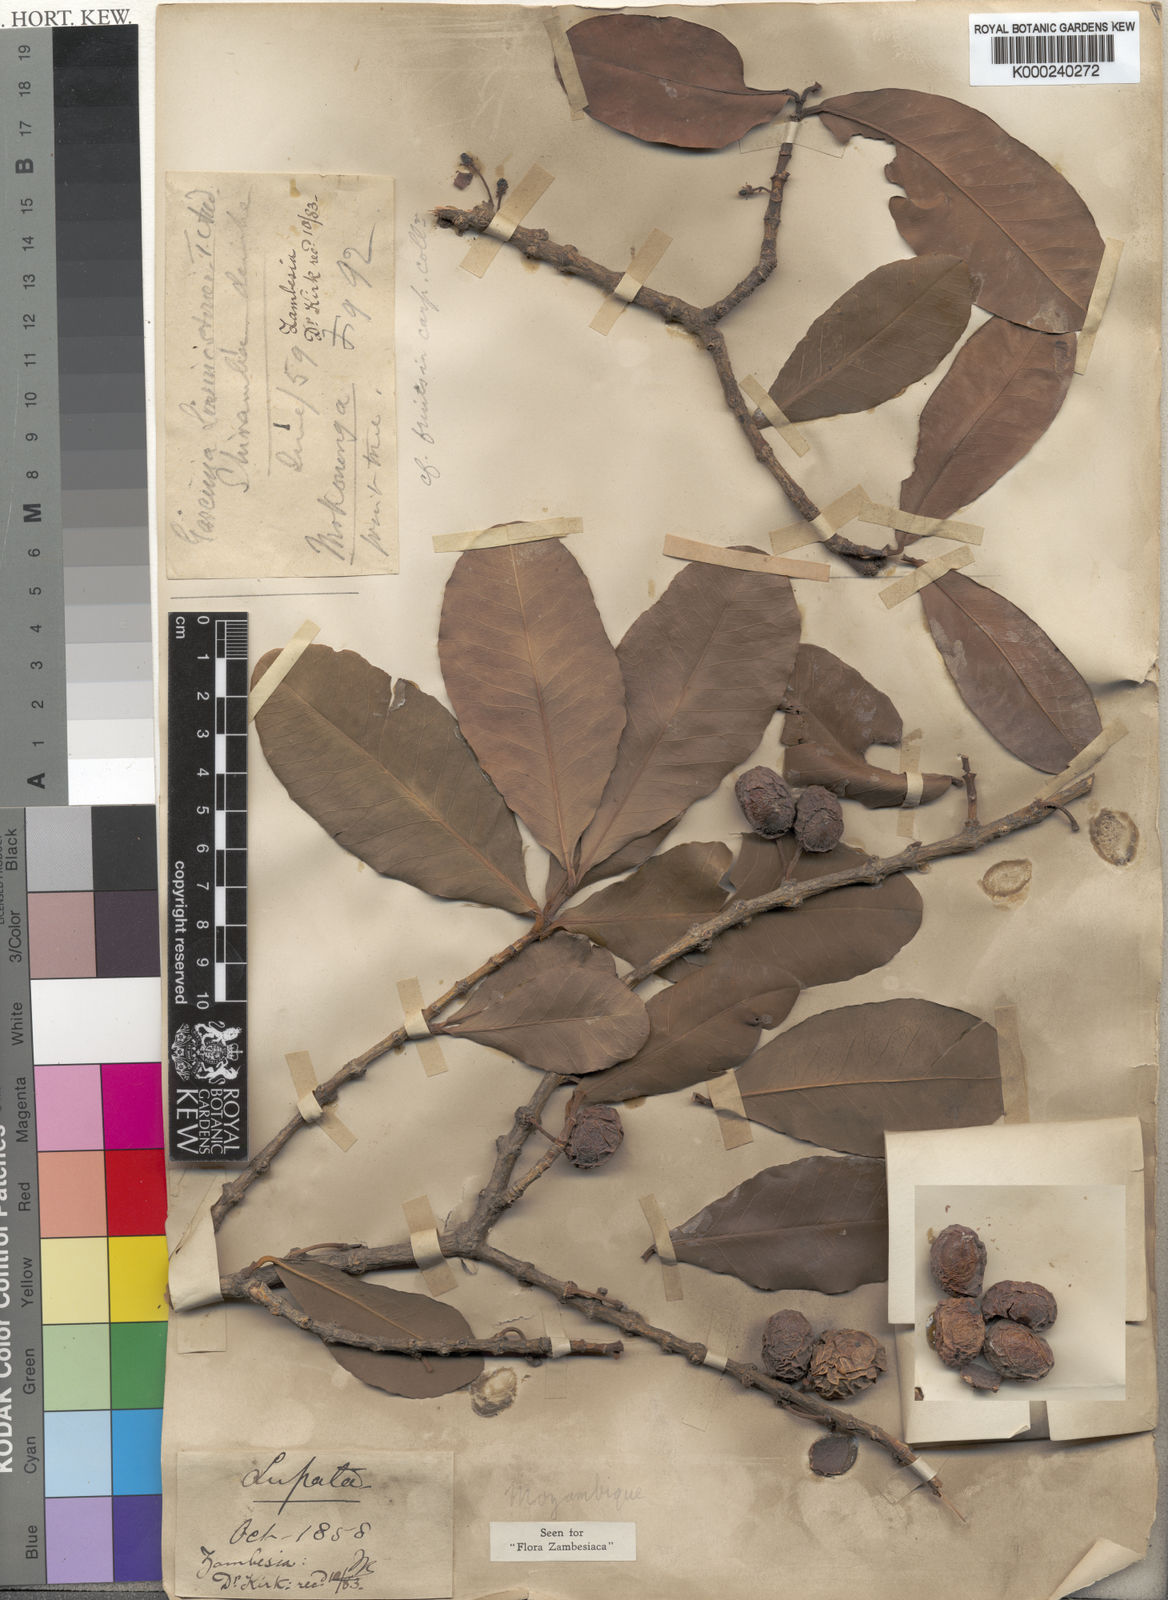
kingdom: Plantae
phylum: Tracheophyta
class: Magnoliopsida
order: Malpighiales
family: Clusiaceae
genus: Garcinia
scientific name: Garcinia livingstonei
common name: African mangosteen
